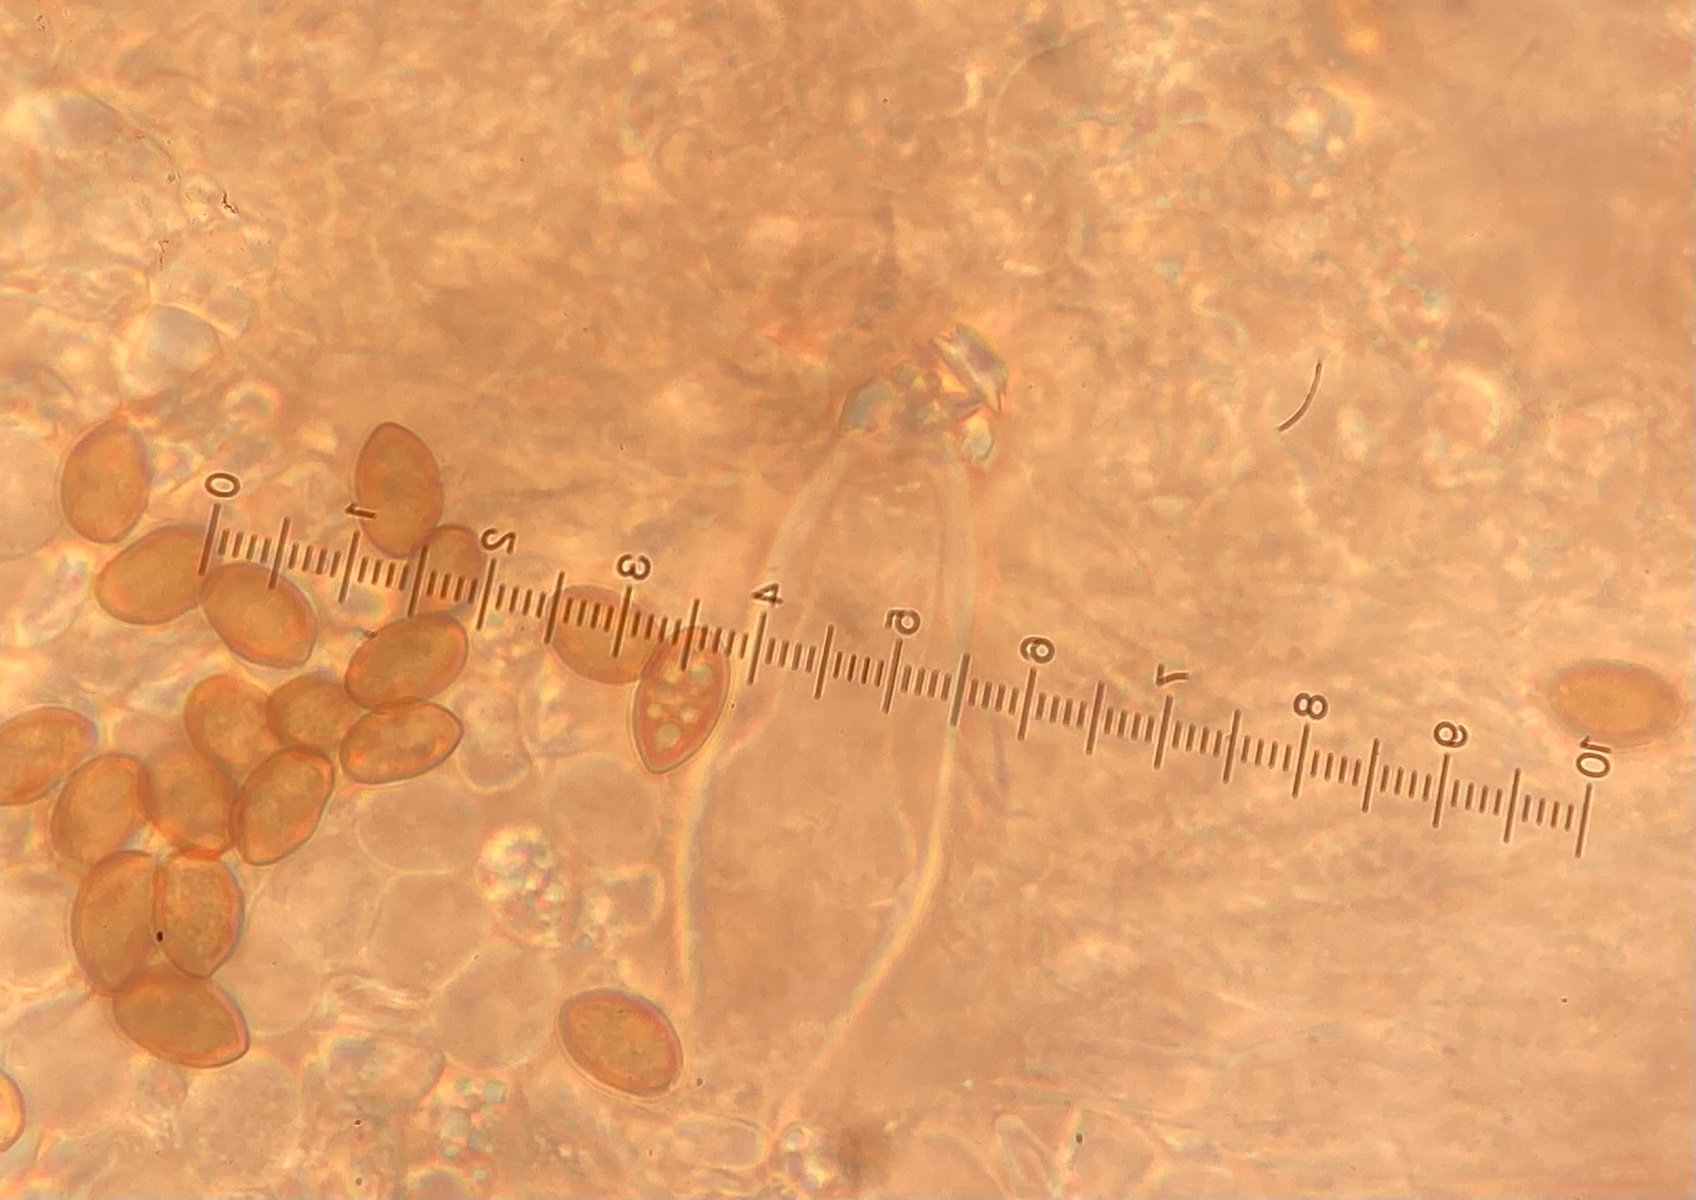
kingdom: Fungi
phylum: Basidiomycota
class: Agaricomycetes
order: Agaricales
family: Inocybaceae
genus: Inocybe
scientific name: Inocybe
